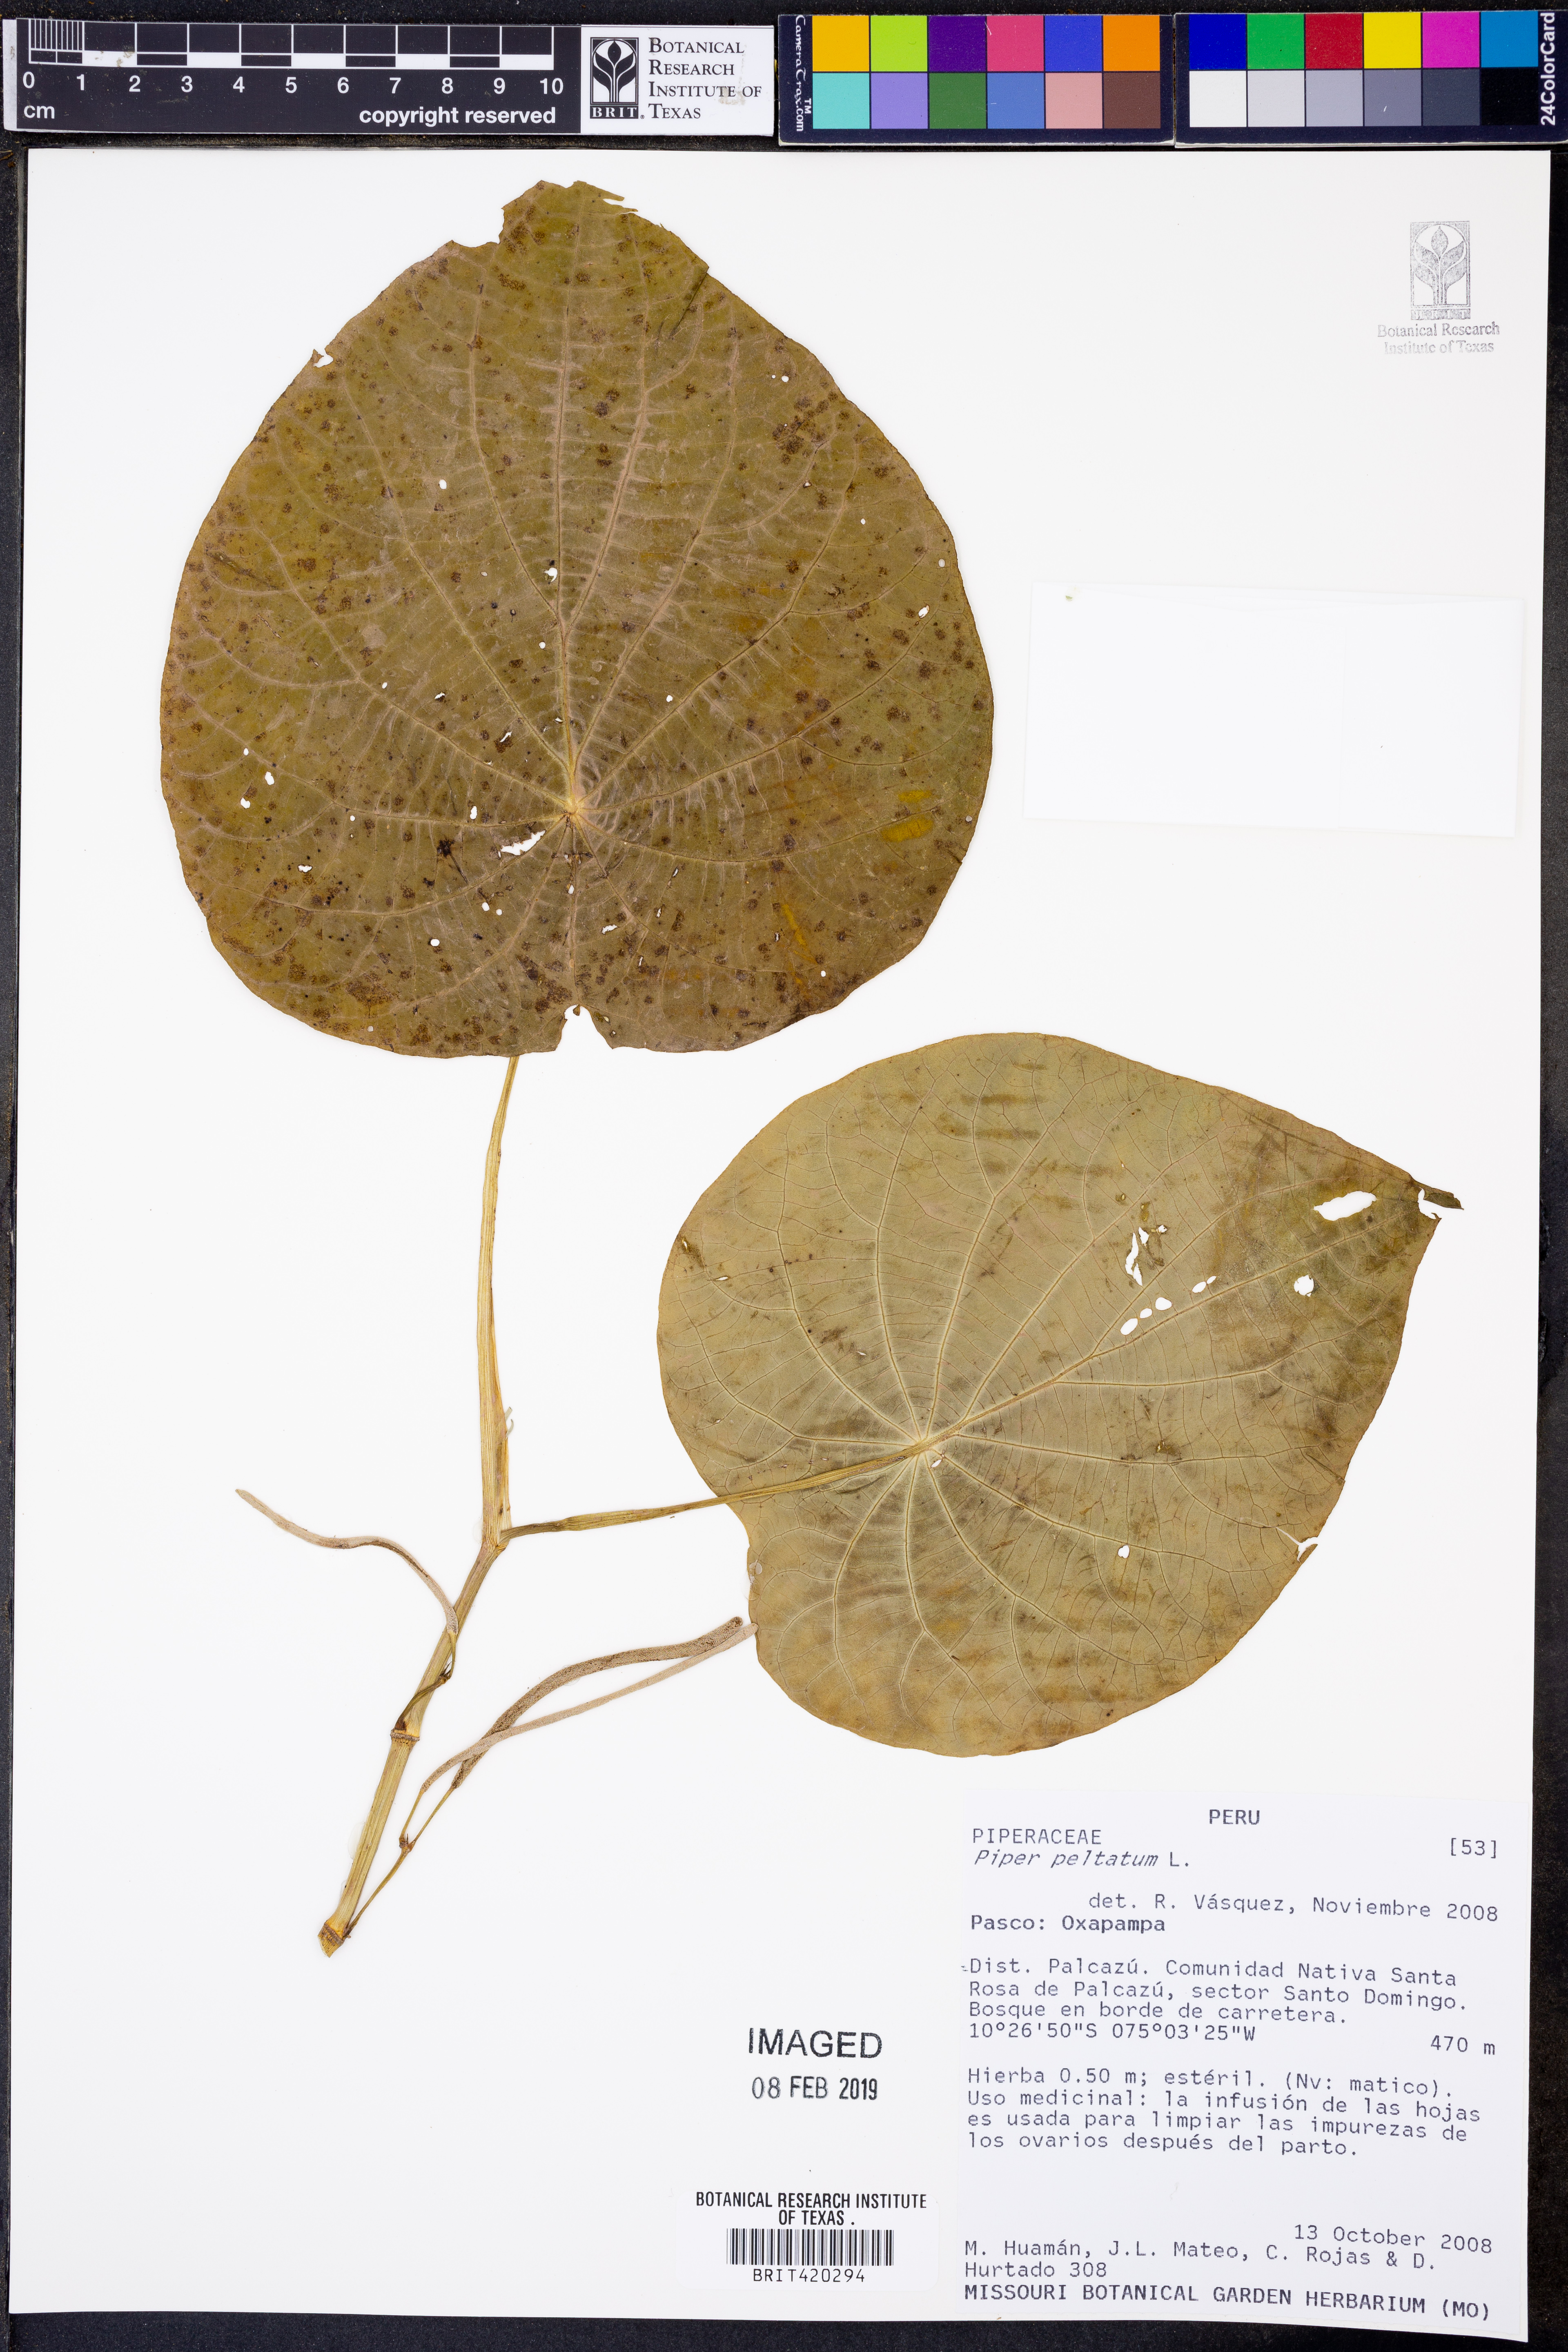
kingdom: Plantae
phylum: Tracheophyta
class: Magnoliopsida
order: Piperales
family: Piperaceae
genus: Piper
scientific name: Piper peltatum
